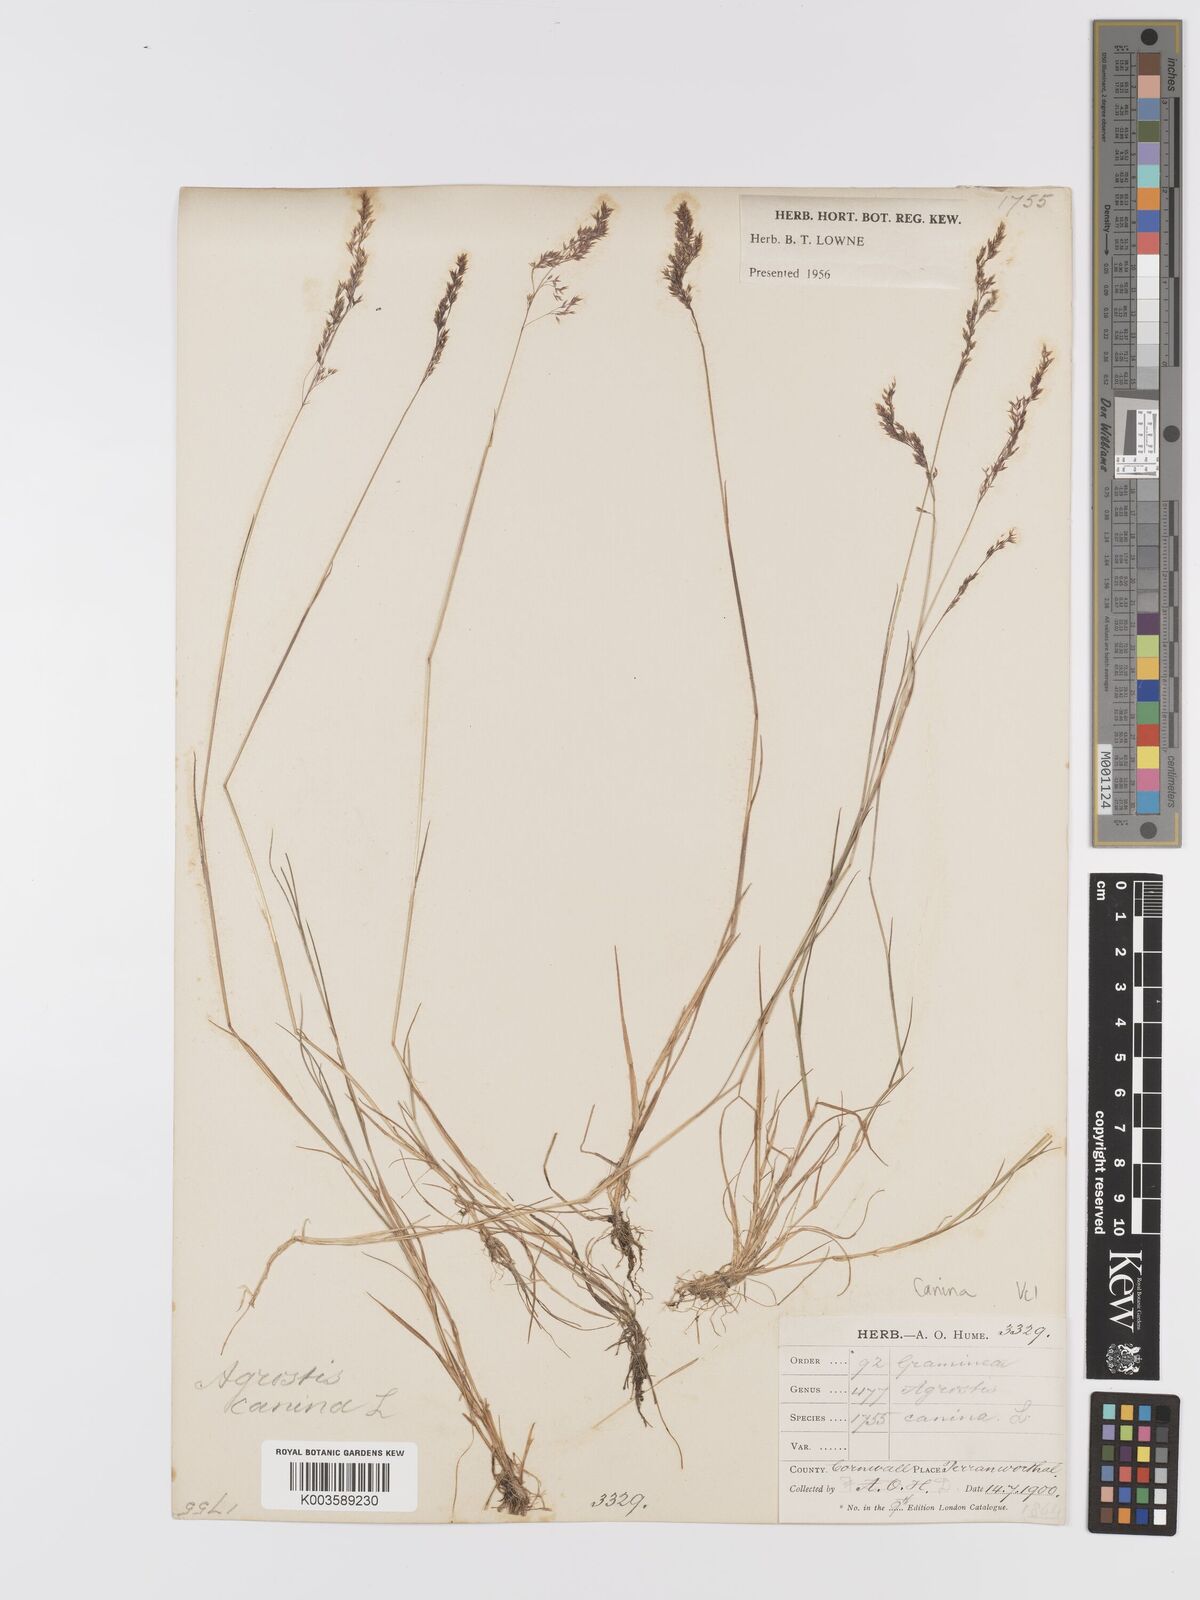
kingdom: Plantae
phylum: Tracheophyta
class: Liliopsida
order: Poales
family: Poaceae
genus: Agrostis
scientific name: Agrostis canina
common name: Velvet bent
